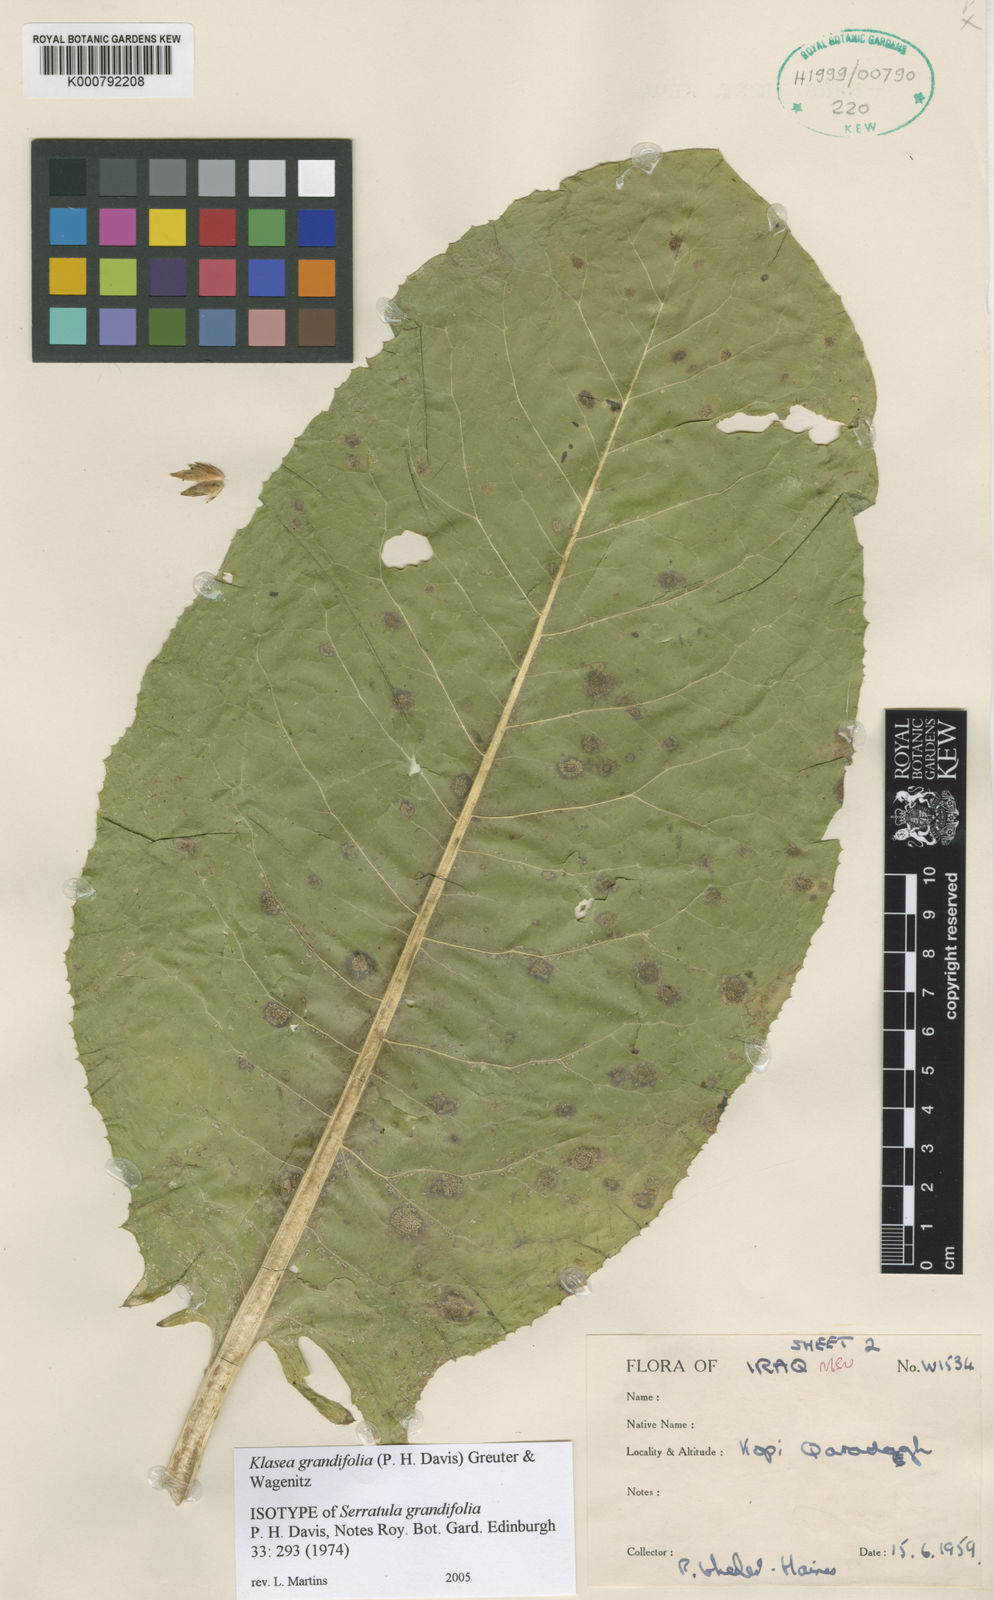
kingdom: Plantae
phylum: Tracheophyta
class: Magnoliopsida
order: Asterales
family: Asteraceae
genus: Klasea
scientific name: Klasea grandifolia
